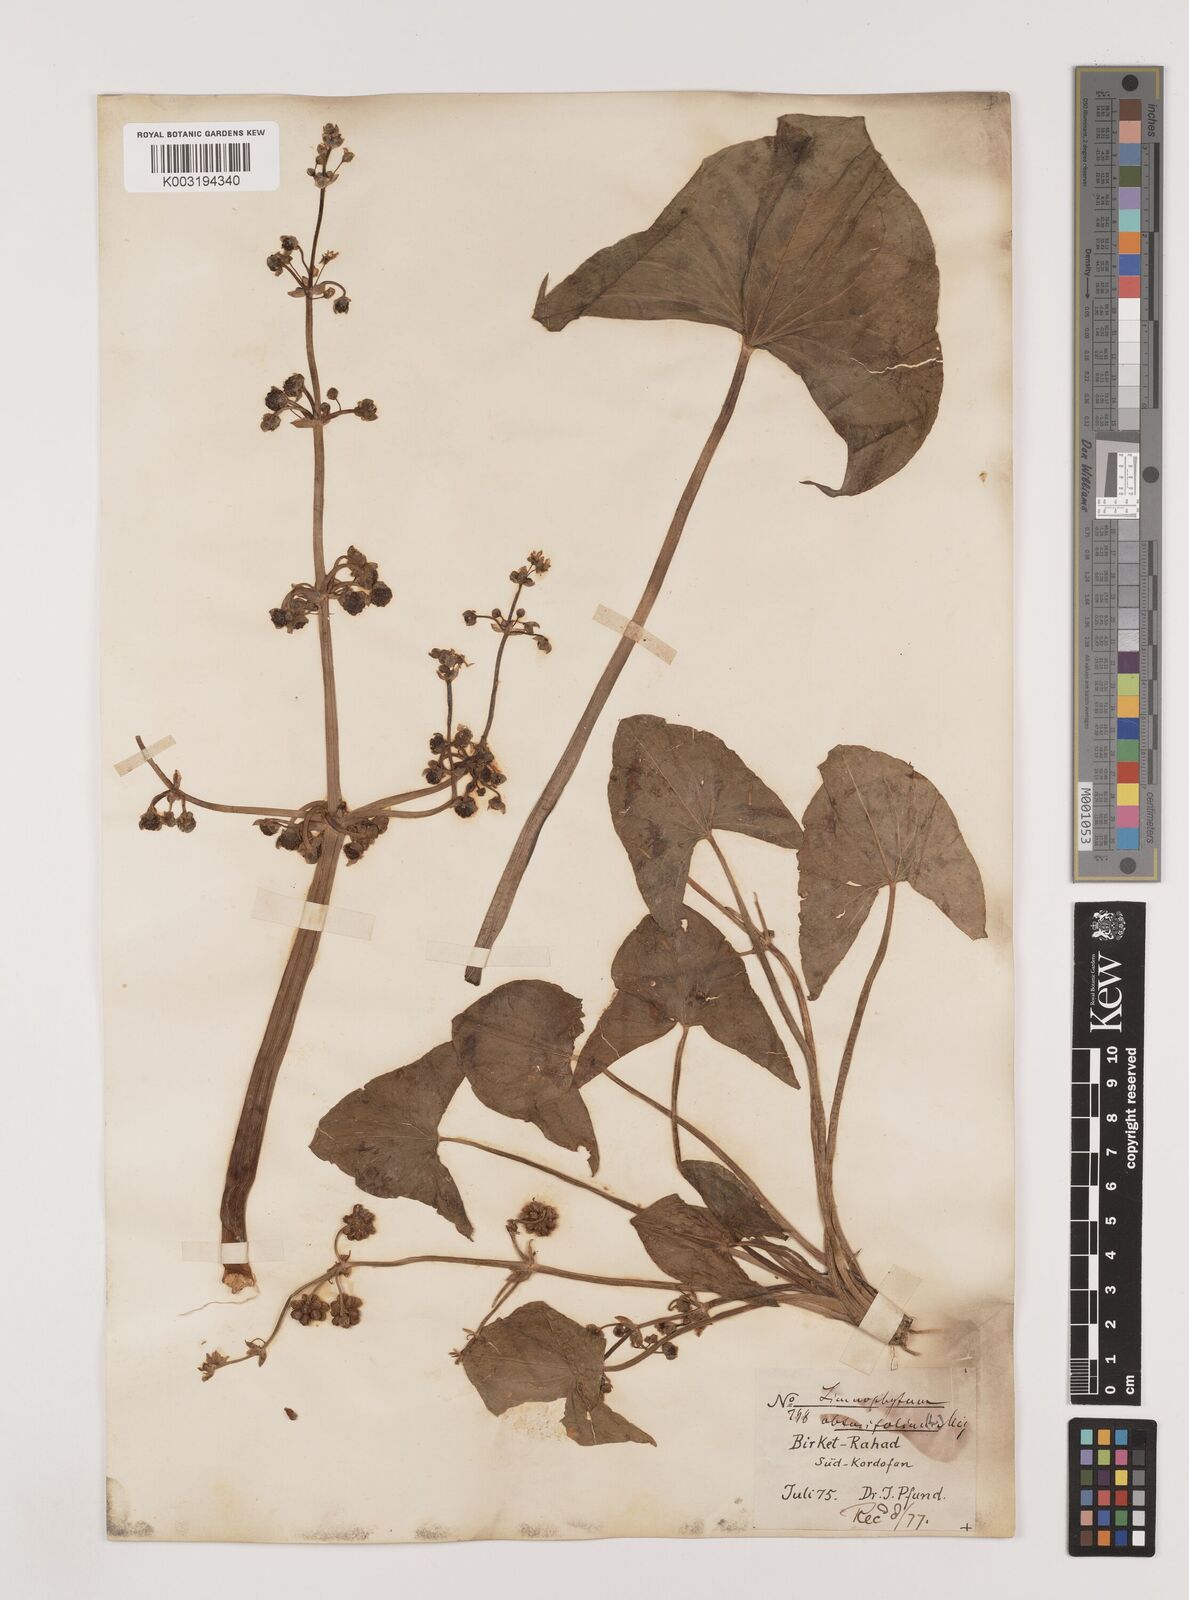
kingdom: Plantae
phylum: Tracheophyta
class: Liliopsida
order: Alismatales
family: Alismataceae
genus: Limnophyton
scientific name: Limnophyton obtusifolium
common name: Arrow head
